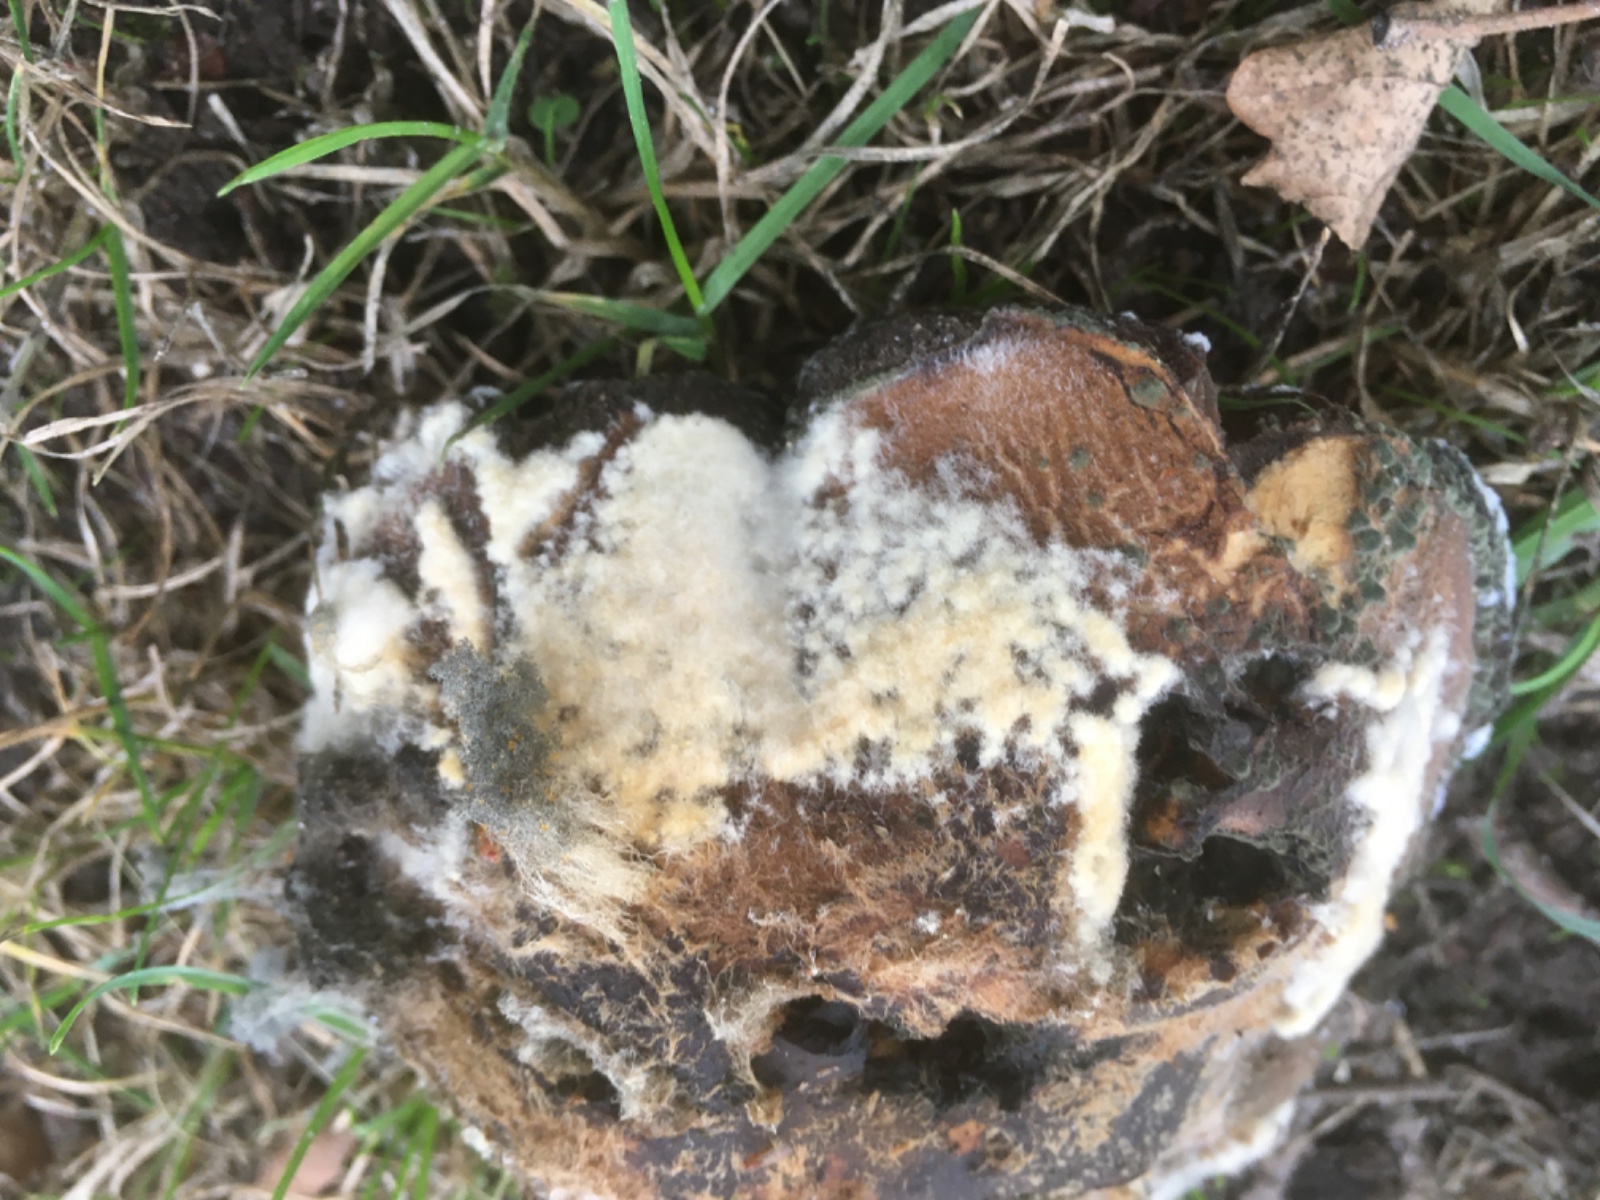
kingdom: Fungi
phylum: Mucoromycota
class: Mucoromycetes
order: Mucorales
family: Rhizopodaceae
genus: Syzygites
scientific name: Syzygites megalocarpus
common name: nissenål
